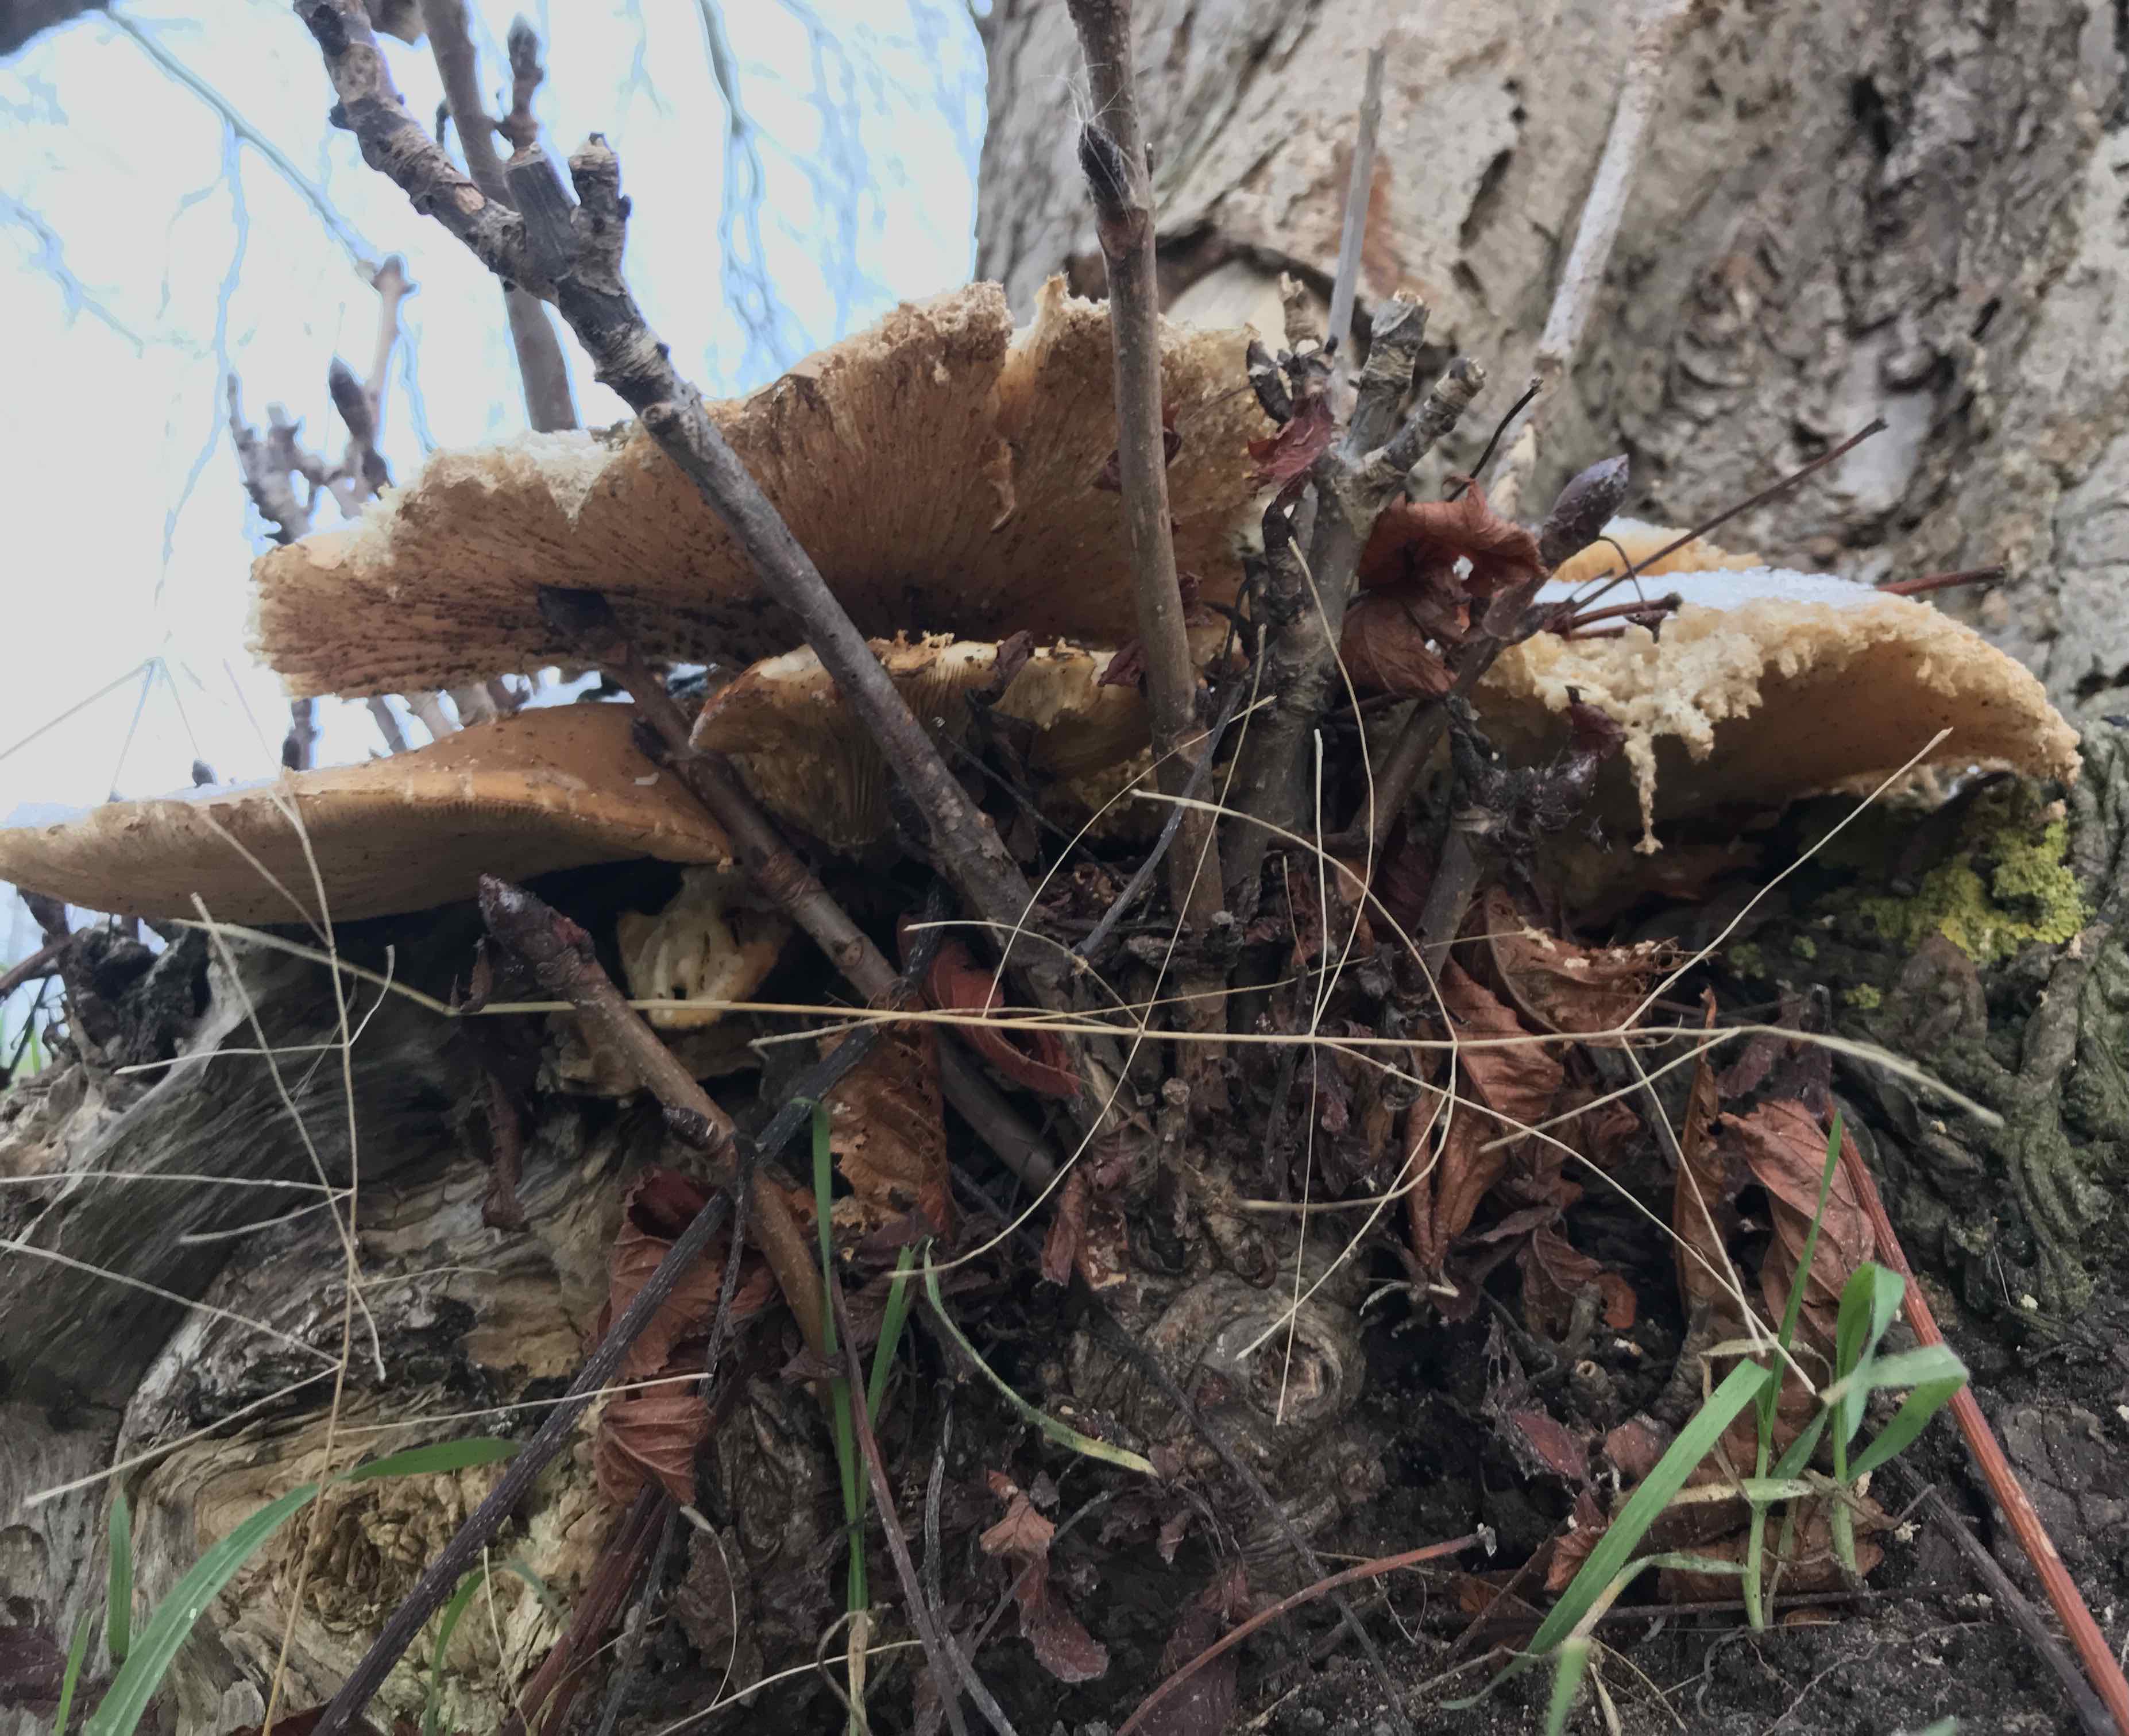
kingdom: Fungi
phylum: Basidiomycota
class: Agaricomycetes
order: Agaricales
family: Pleurotaceae
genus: Pleurotus
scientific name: Pleurotus ostreatus
